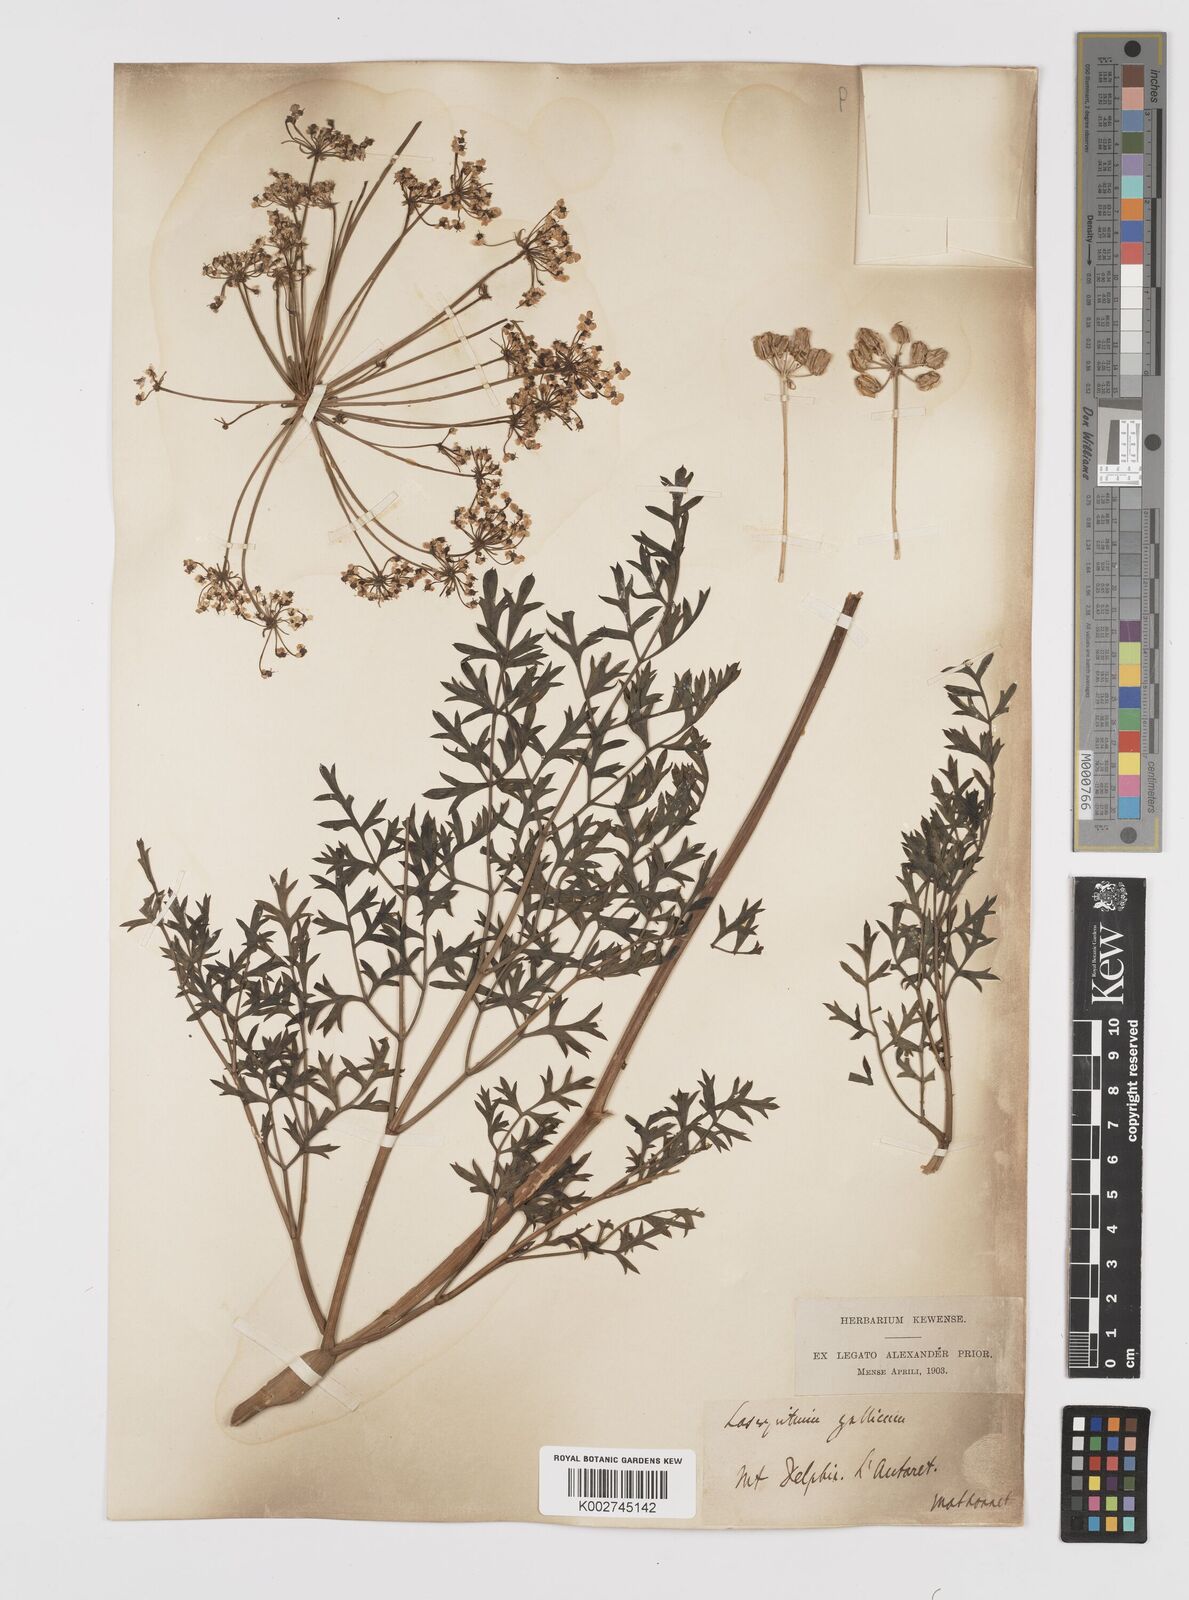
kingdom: Plantae
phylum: Tracheophyta
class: Magnoliopsida
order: Apiales
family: Apiaceae
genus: Laserpitium
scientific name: Laserpitium gallicum
